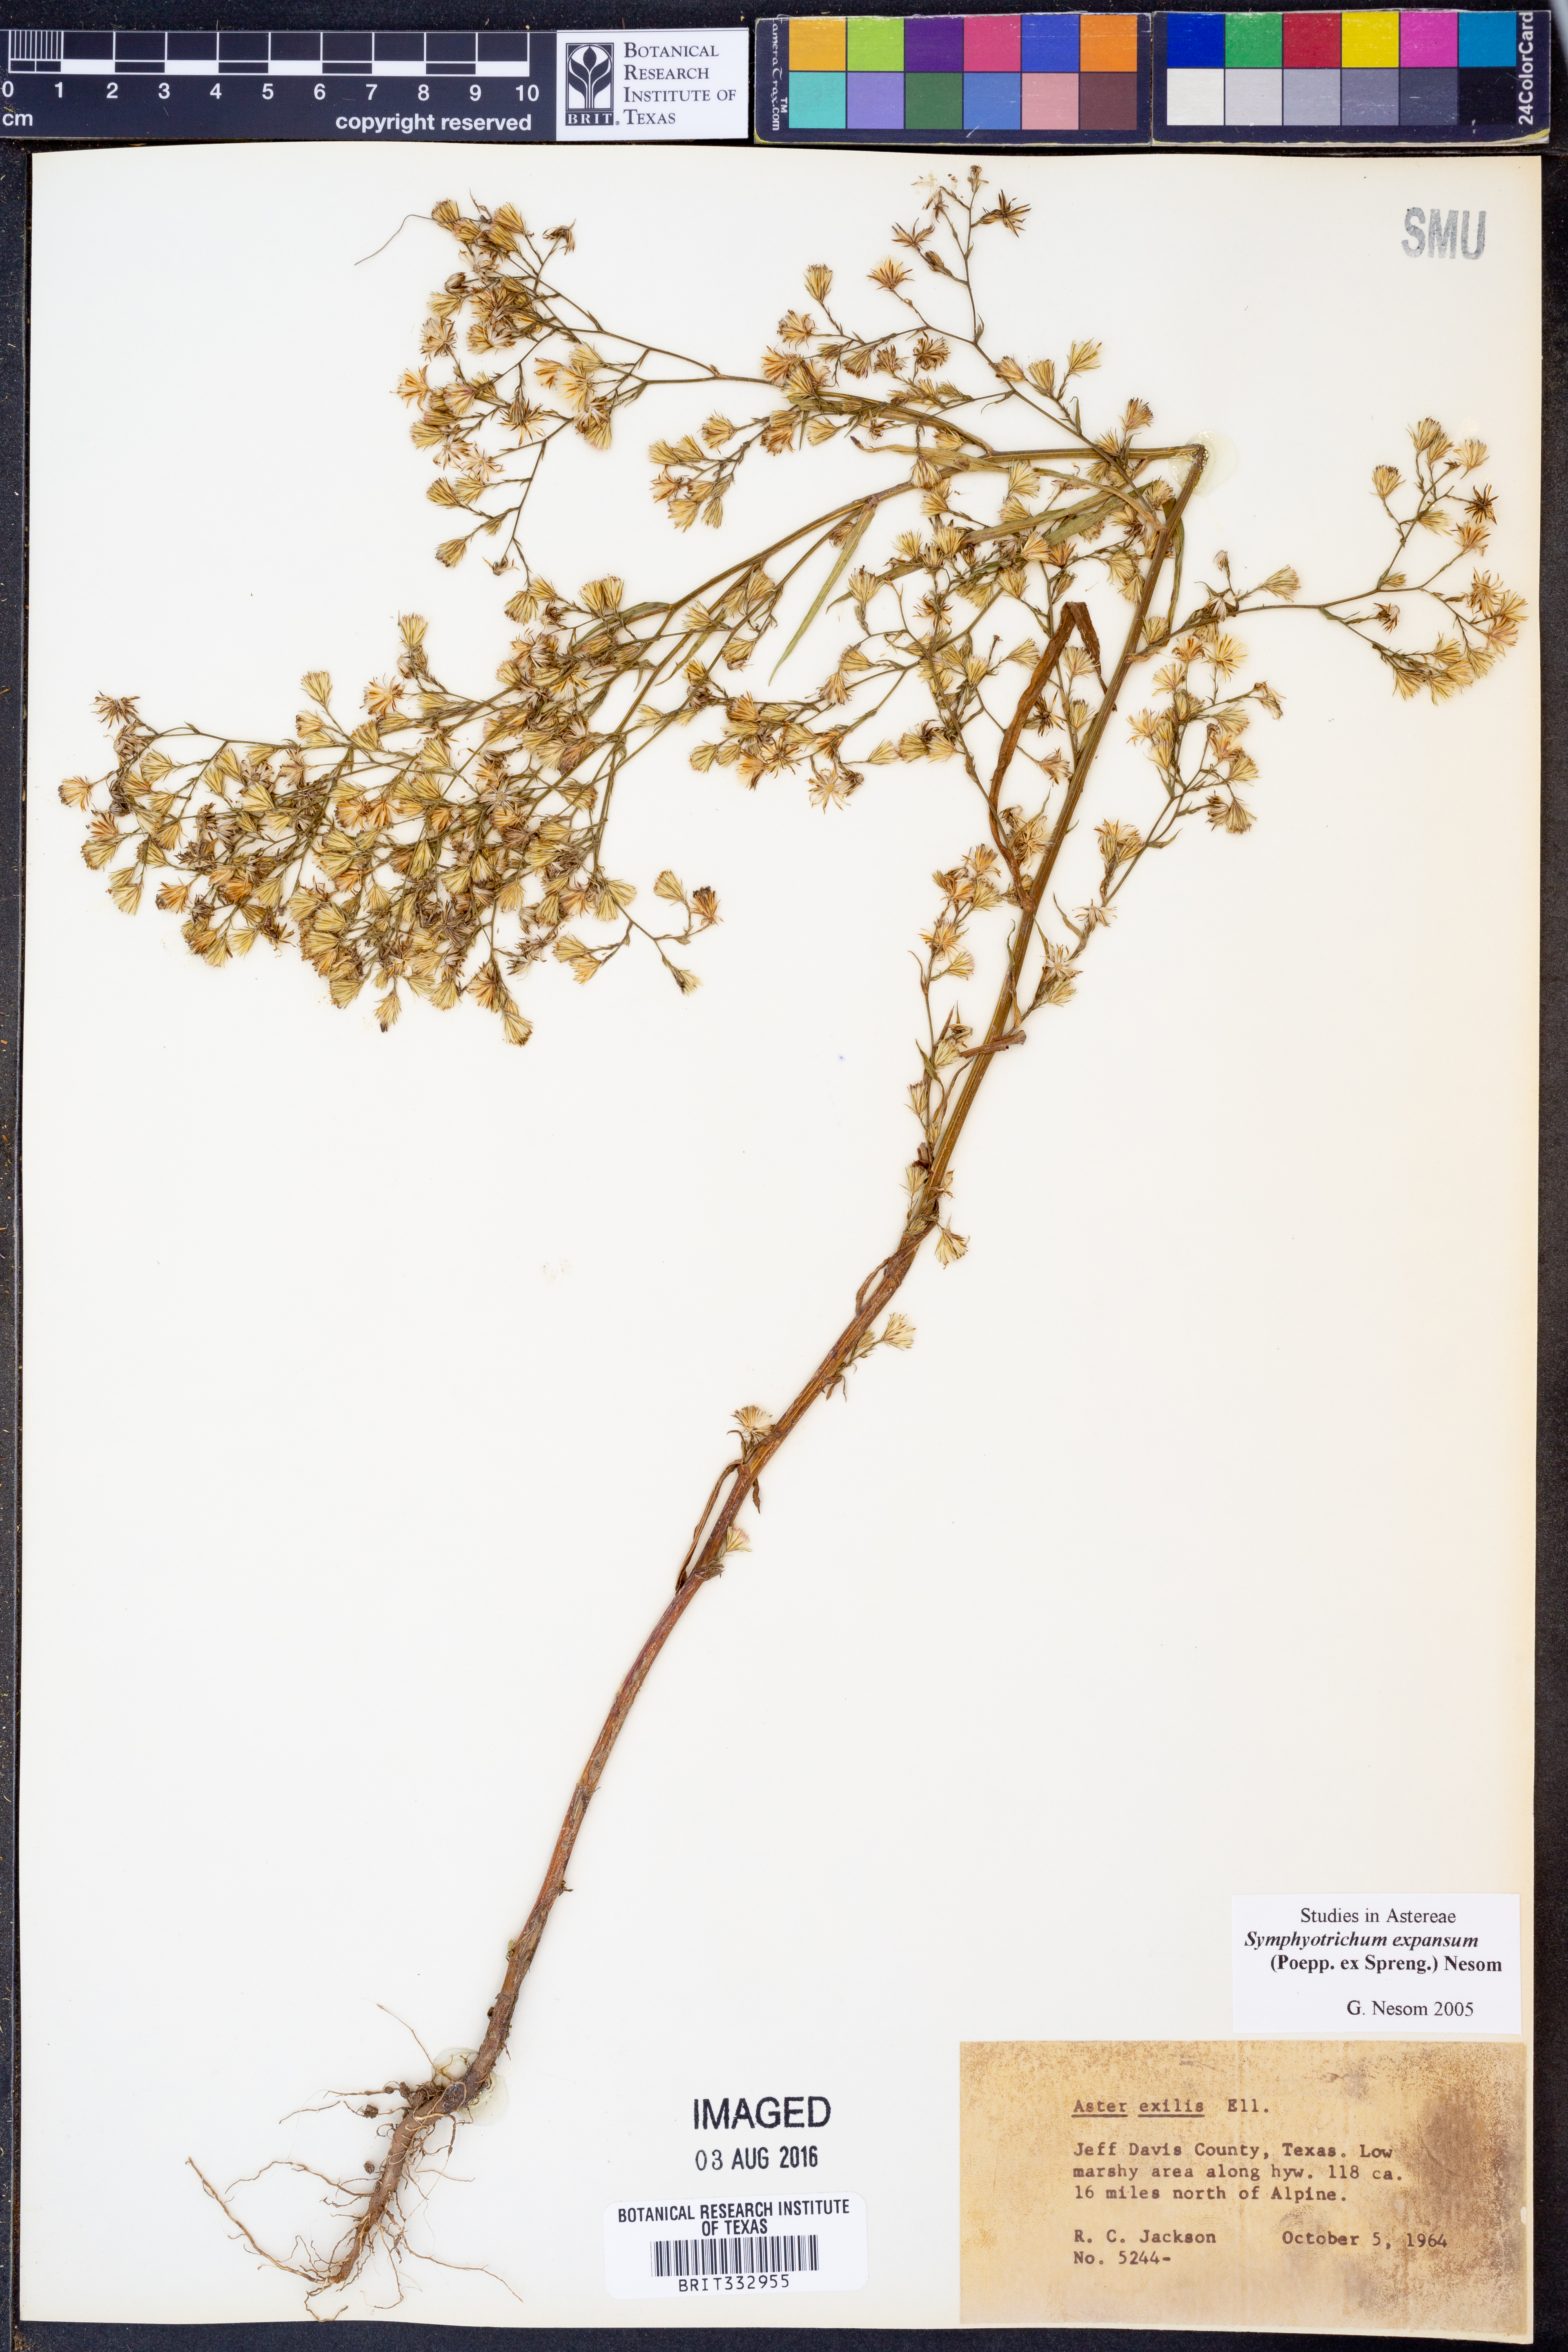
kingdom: Plantae
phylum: Tracheophyta
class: Magnoliopsida
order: Asterales
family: Asteraceae
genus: Symphyotrichum
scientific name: Symphyotrichum expansum
